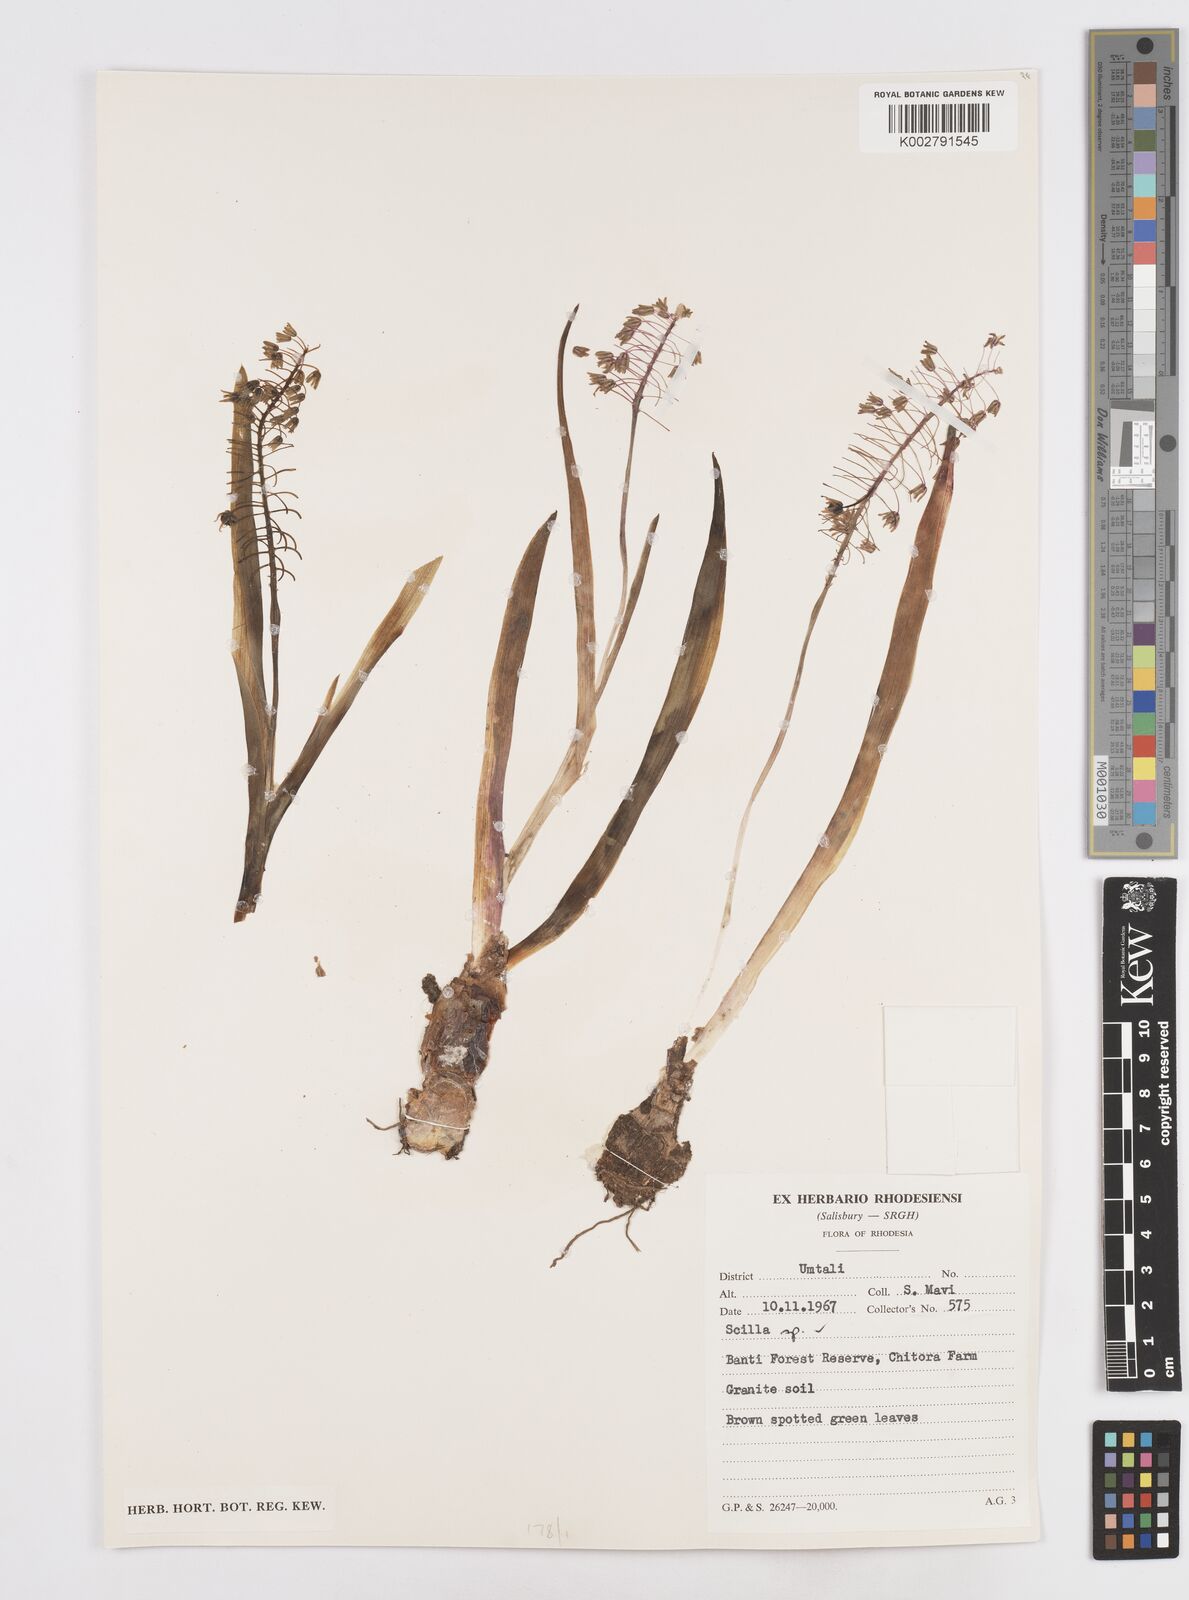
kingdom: Plantae
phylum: Tracheophyta
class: Liliopsida
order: Asparagales
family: Asparagaceae
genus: Scilla
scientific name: Scilla
